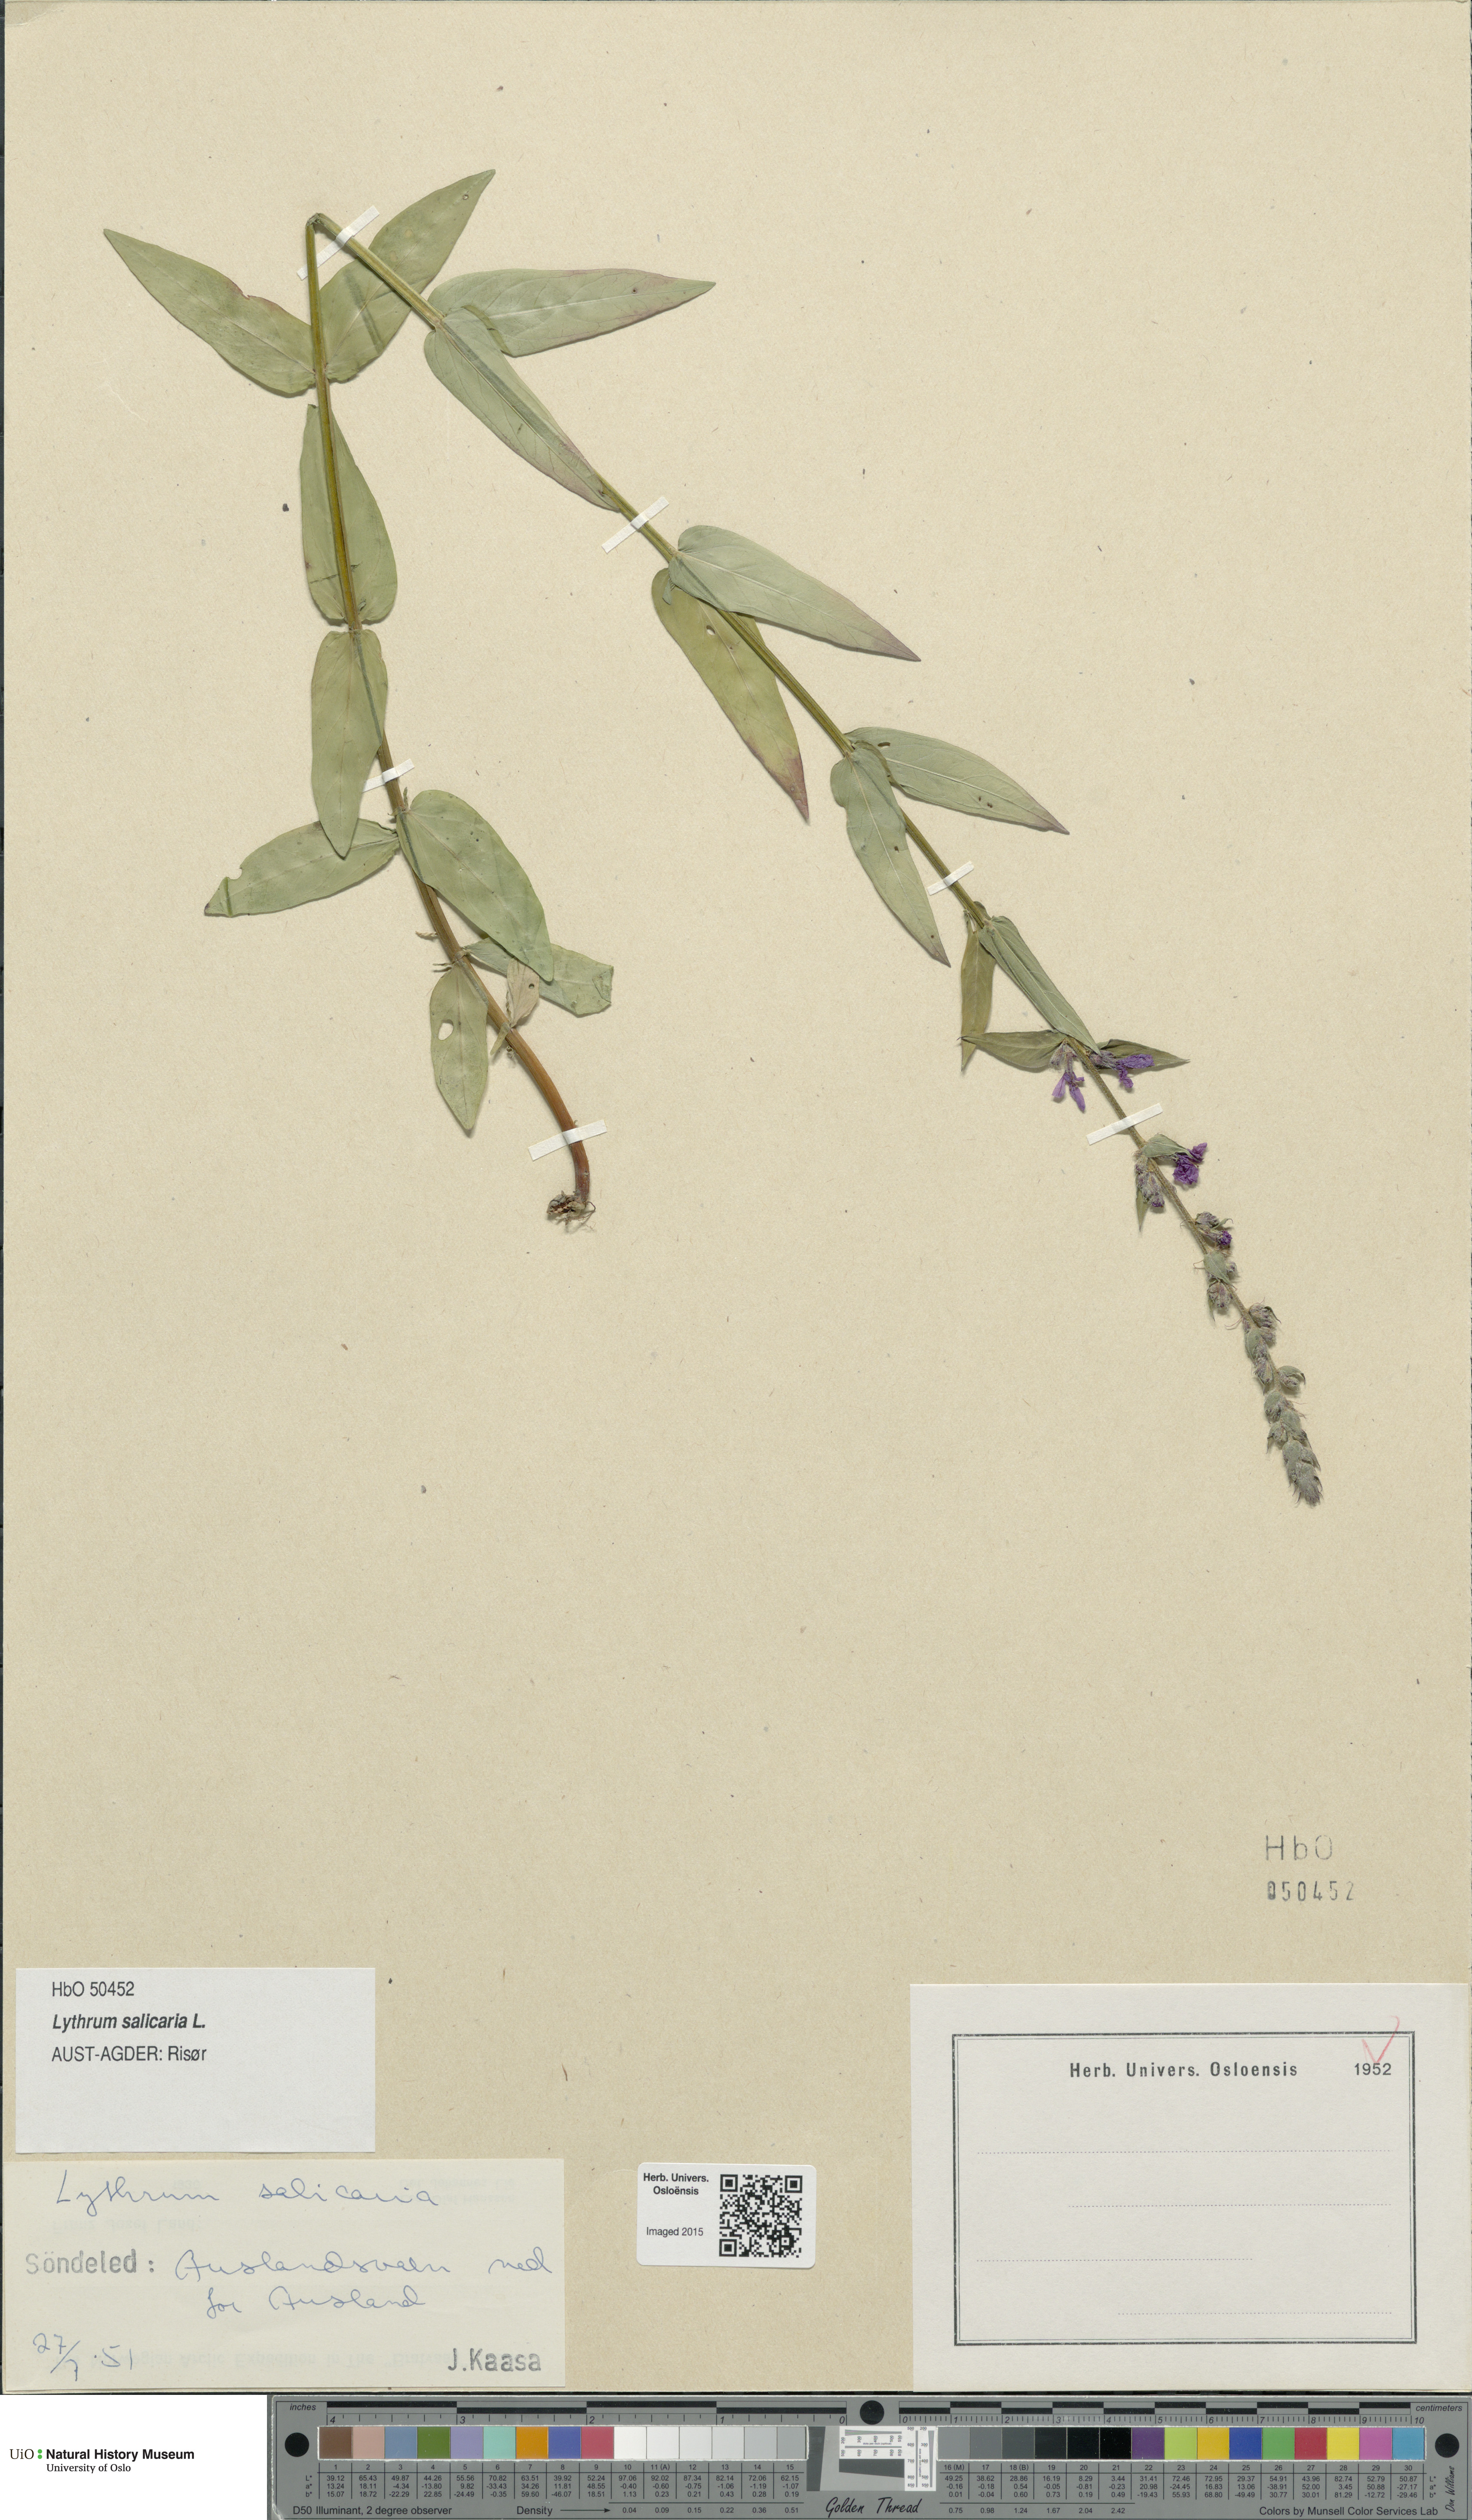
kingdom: Plantae
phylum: Tracheophyta
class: Magnoliopsida
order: Myrtales
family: Lythraceae
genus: Lythrum
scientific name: Lythrum salicaria
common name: Purple loosestrife
